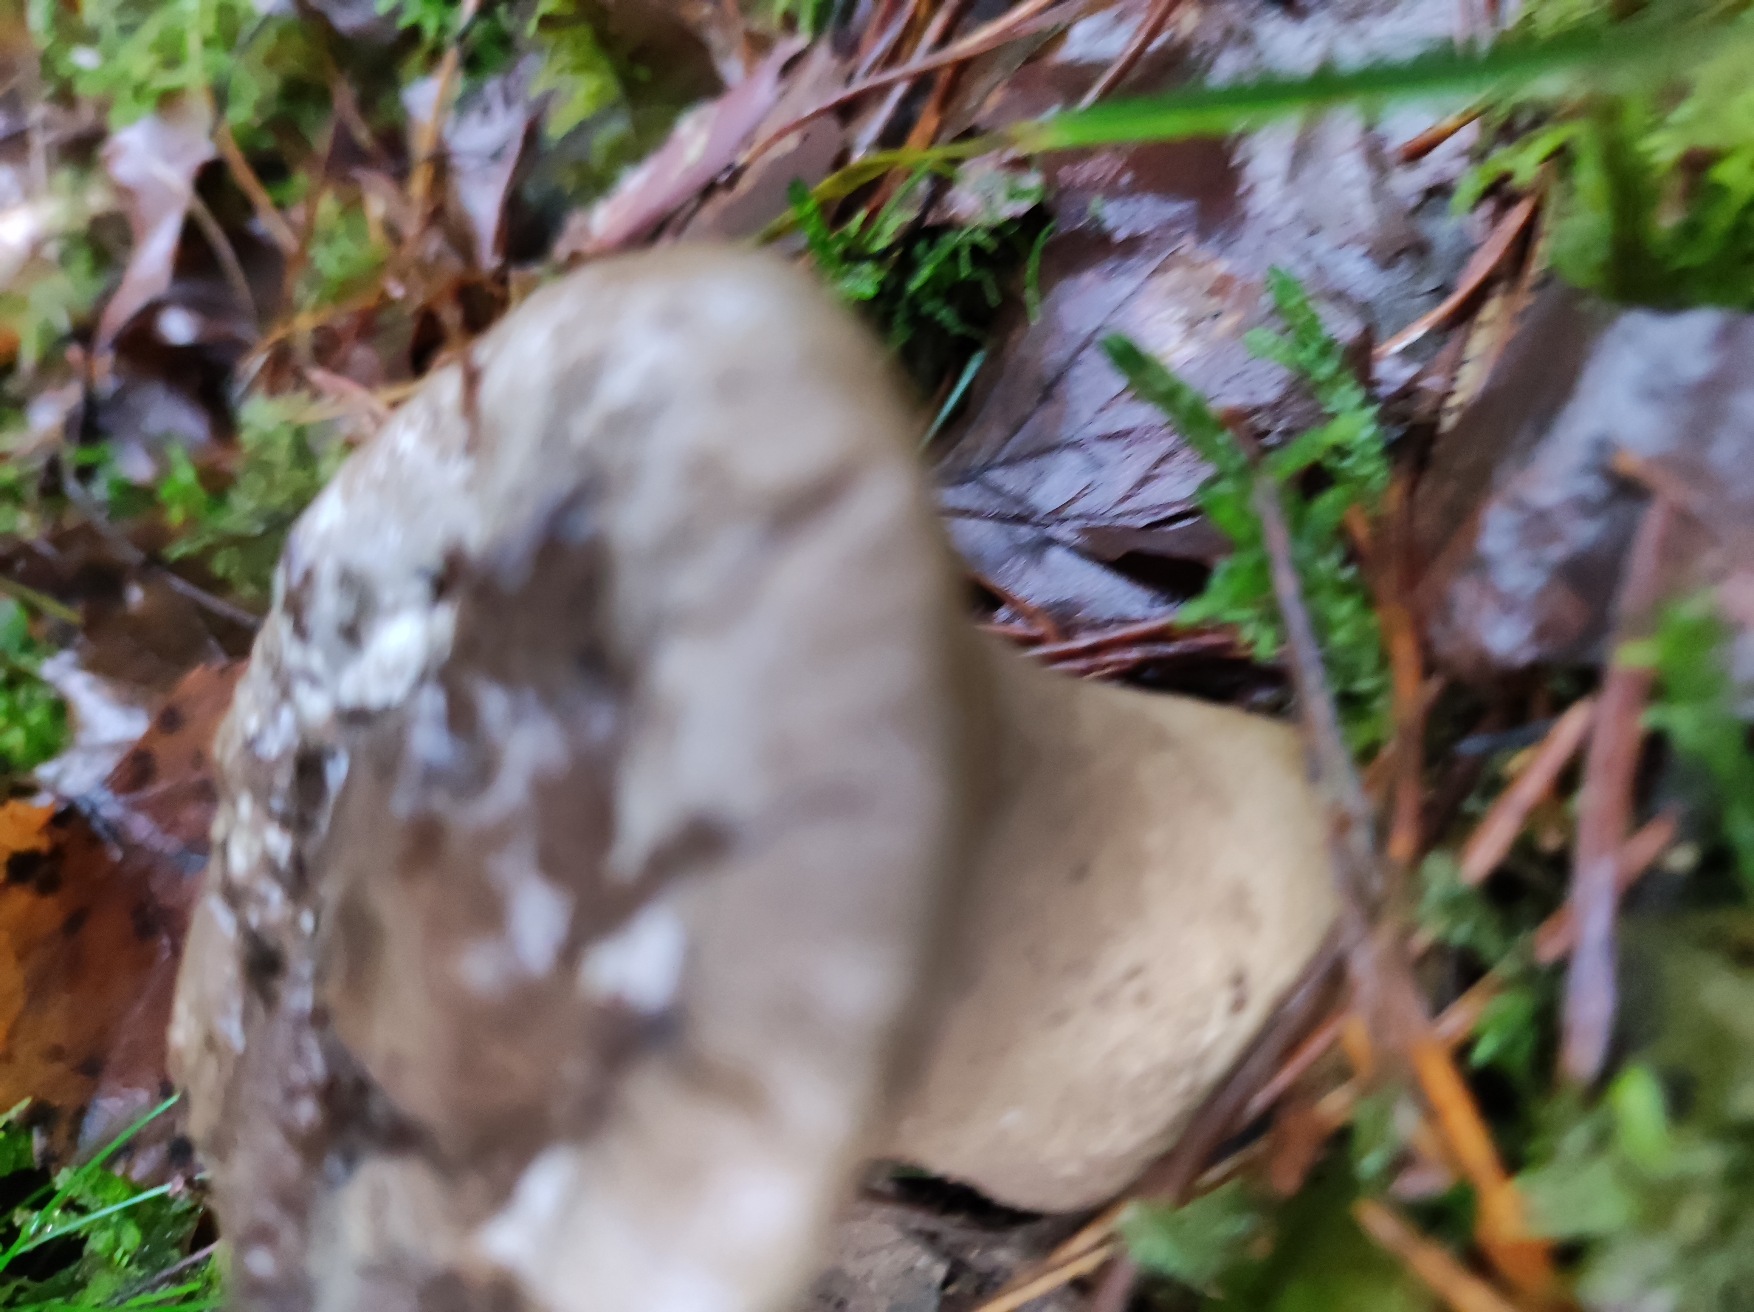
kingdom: Fungi
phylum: Basidiomycota
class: Agaricomycetes
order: Agaricales
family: Lycoperdaceae
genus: Lycoperdon
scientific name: Lycoperdon
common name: Støvbold
